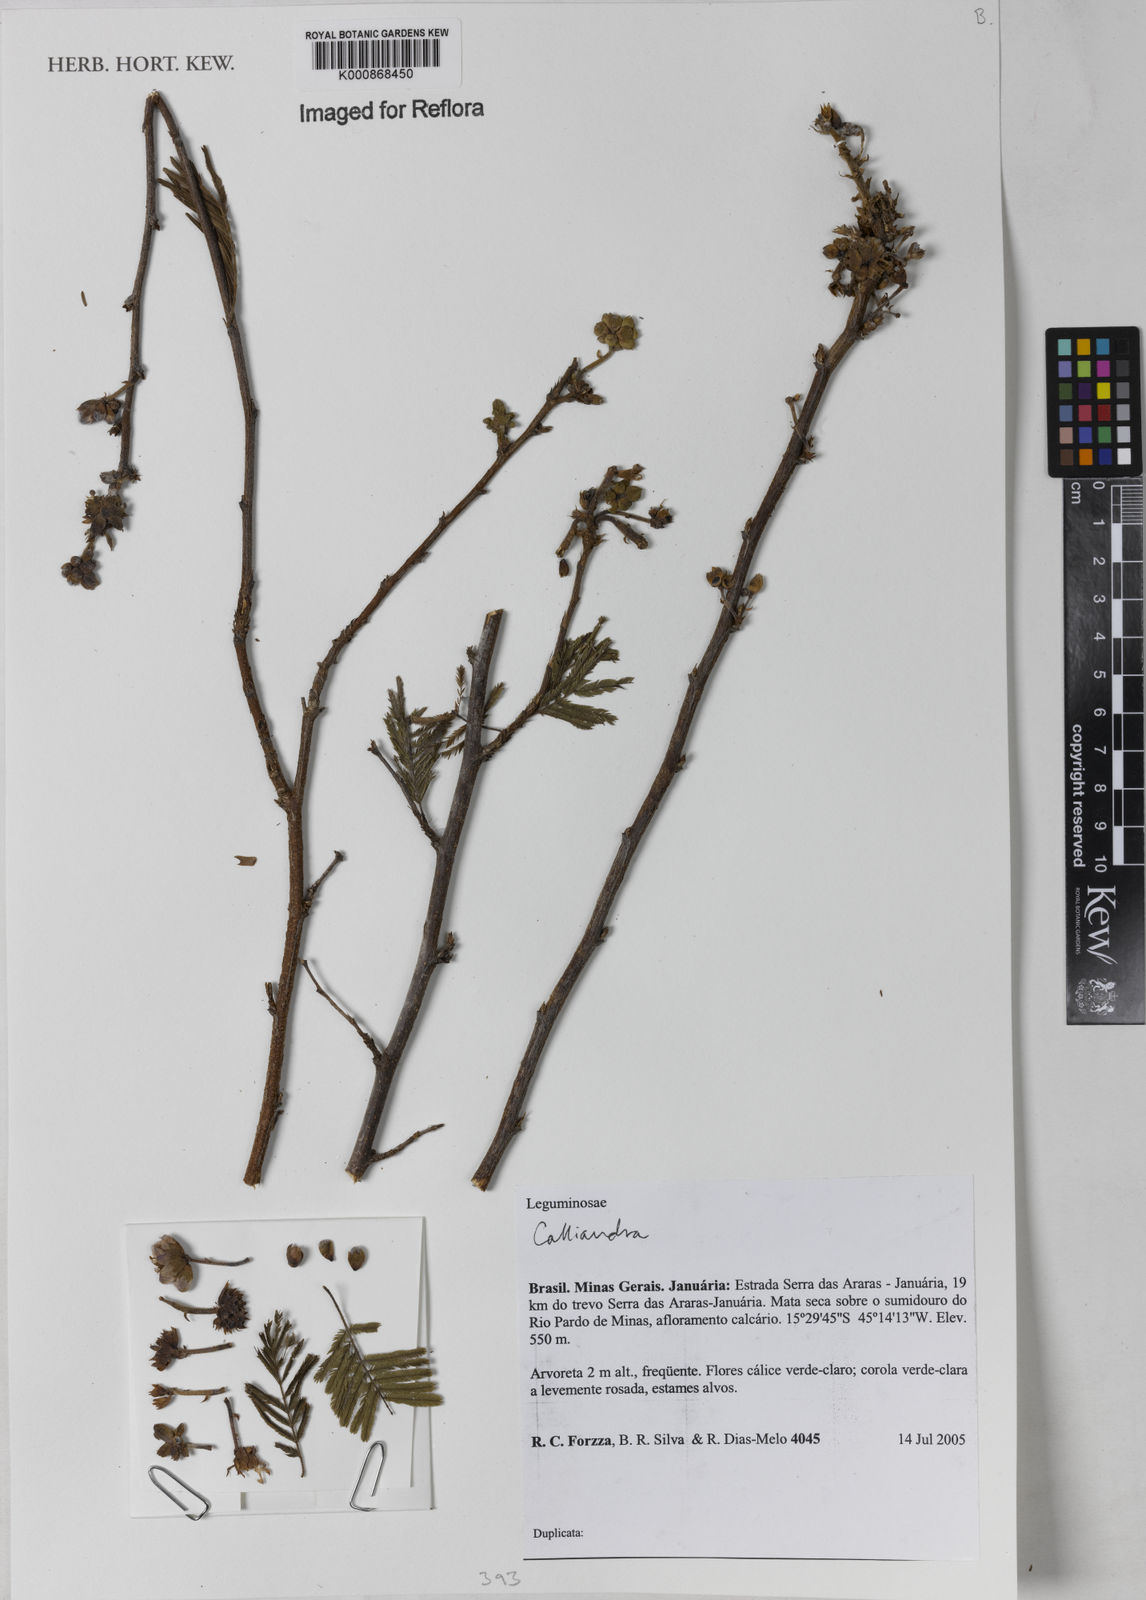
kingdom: Plantae
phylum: Tracheophyta
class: Magnoliopsida
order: Fabales
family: Fabaceae
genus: Calliandra
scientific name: Calliandra
